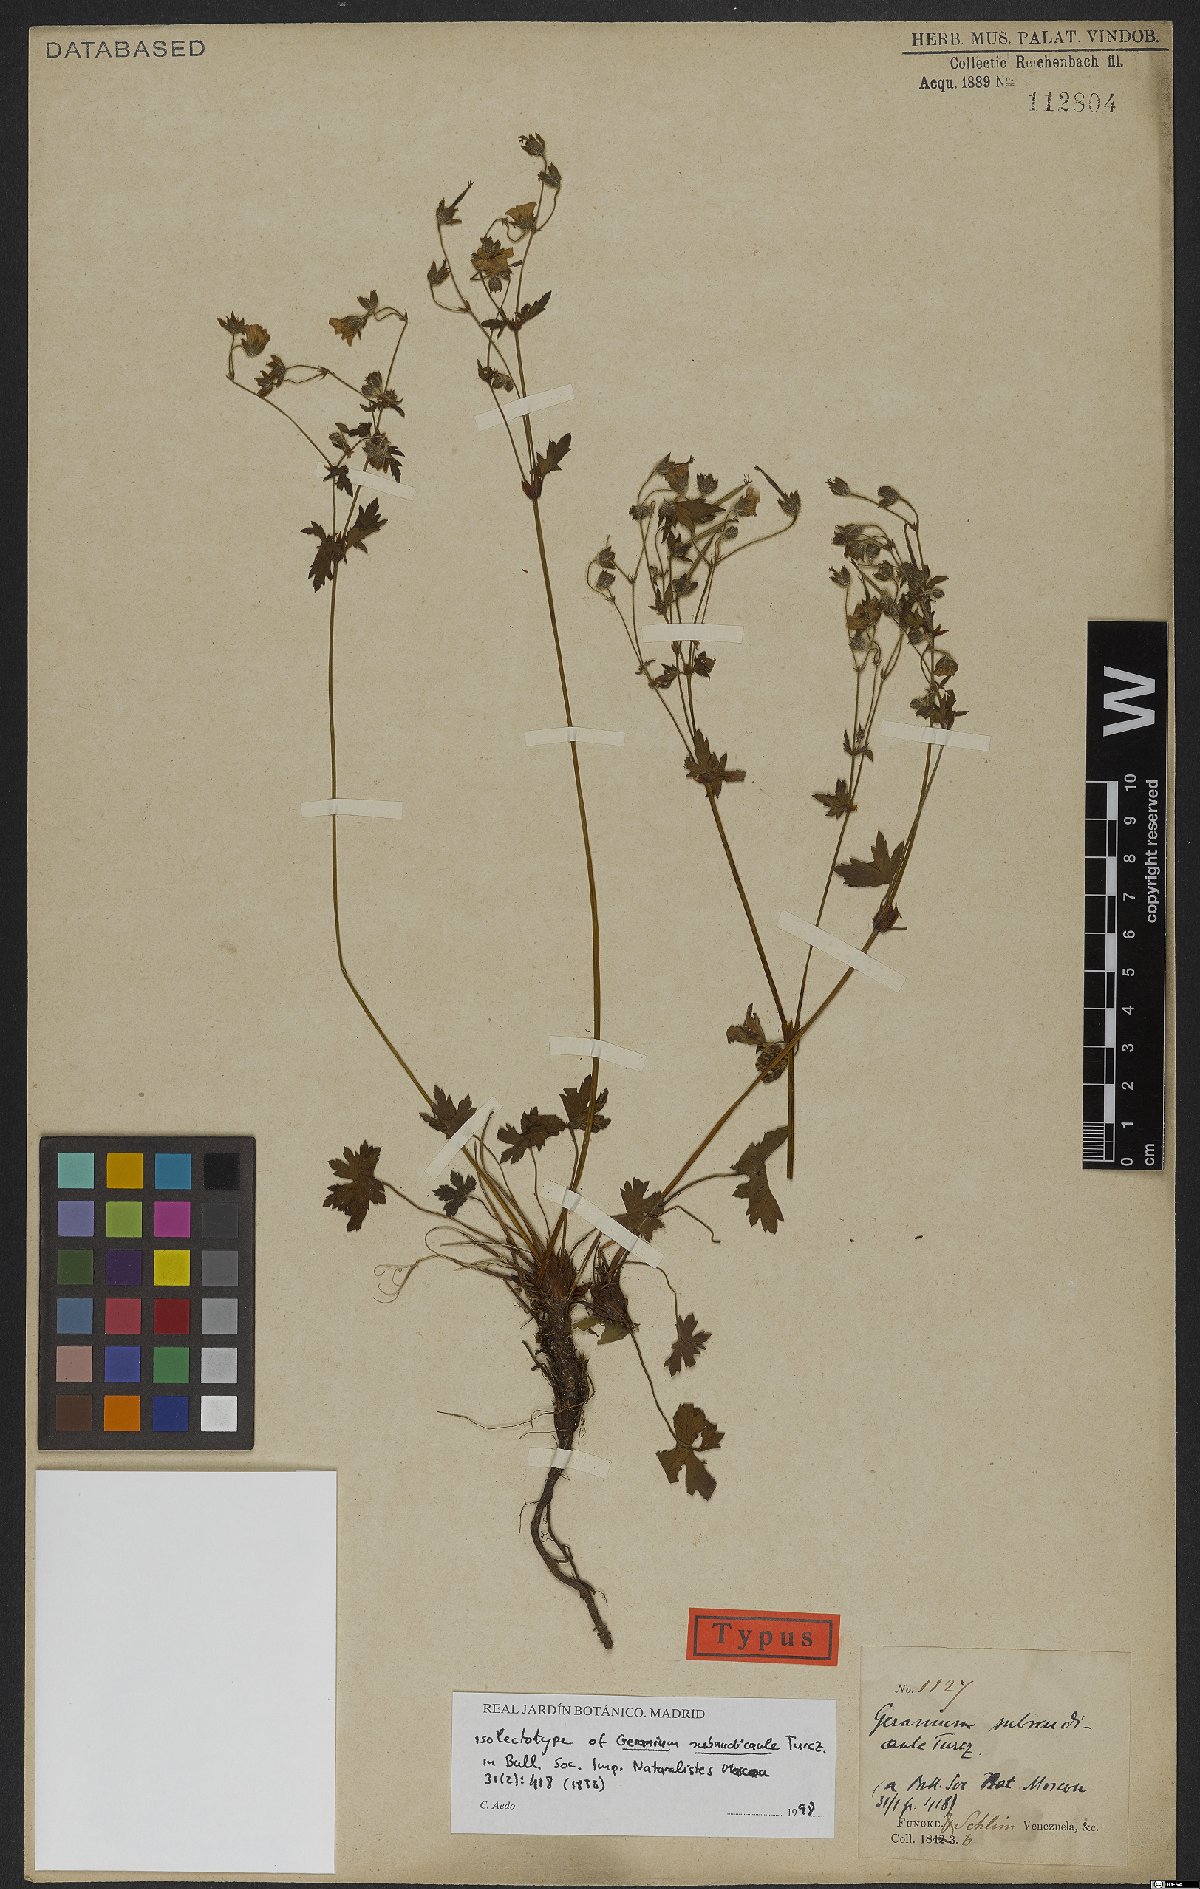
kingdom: Plantae
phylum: Tracheophyta
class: Magnoliopsida
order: Geraniales
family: Geraniaceae
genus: Geranium
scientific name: Geranium subnudicaule
